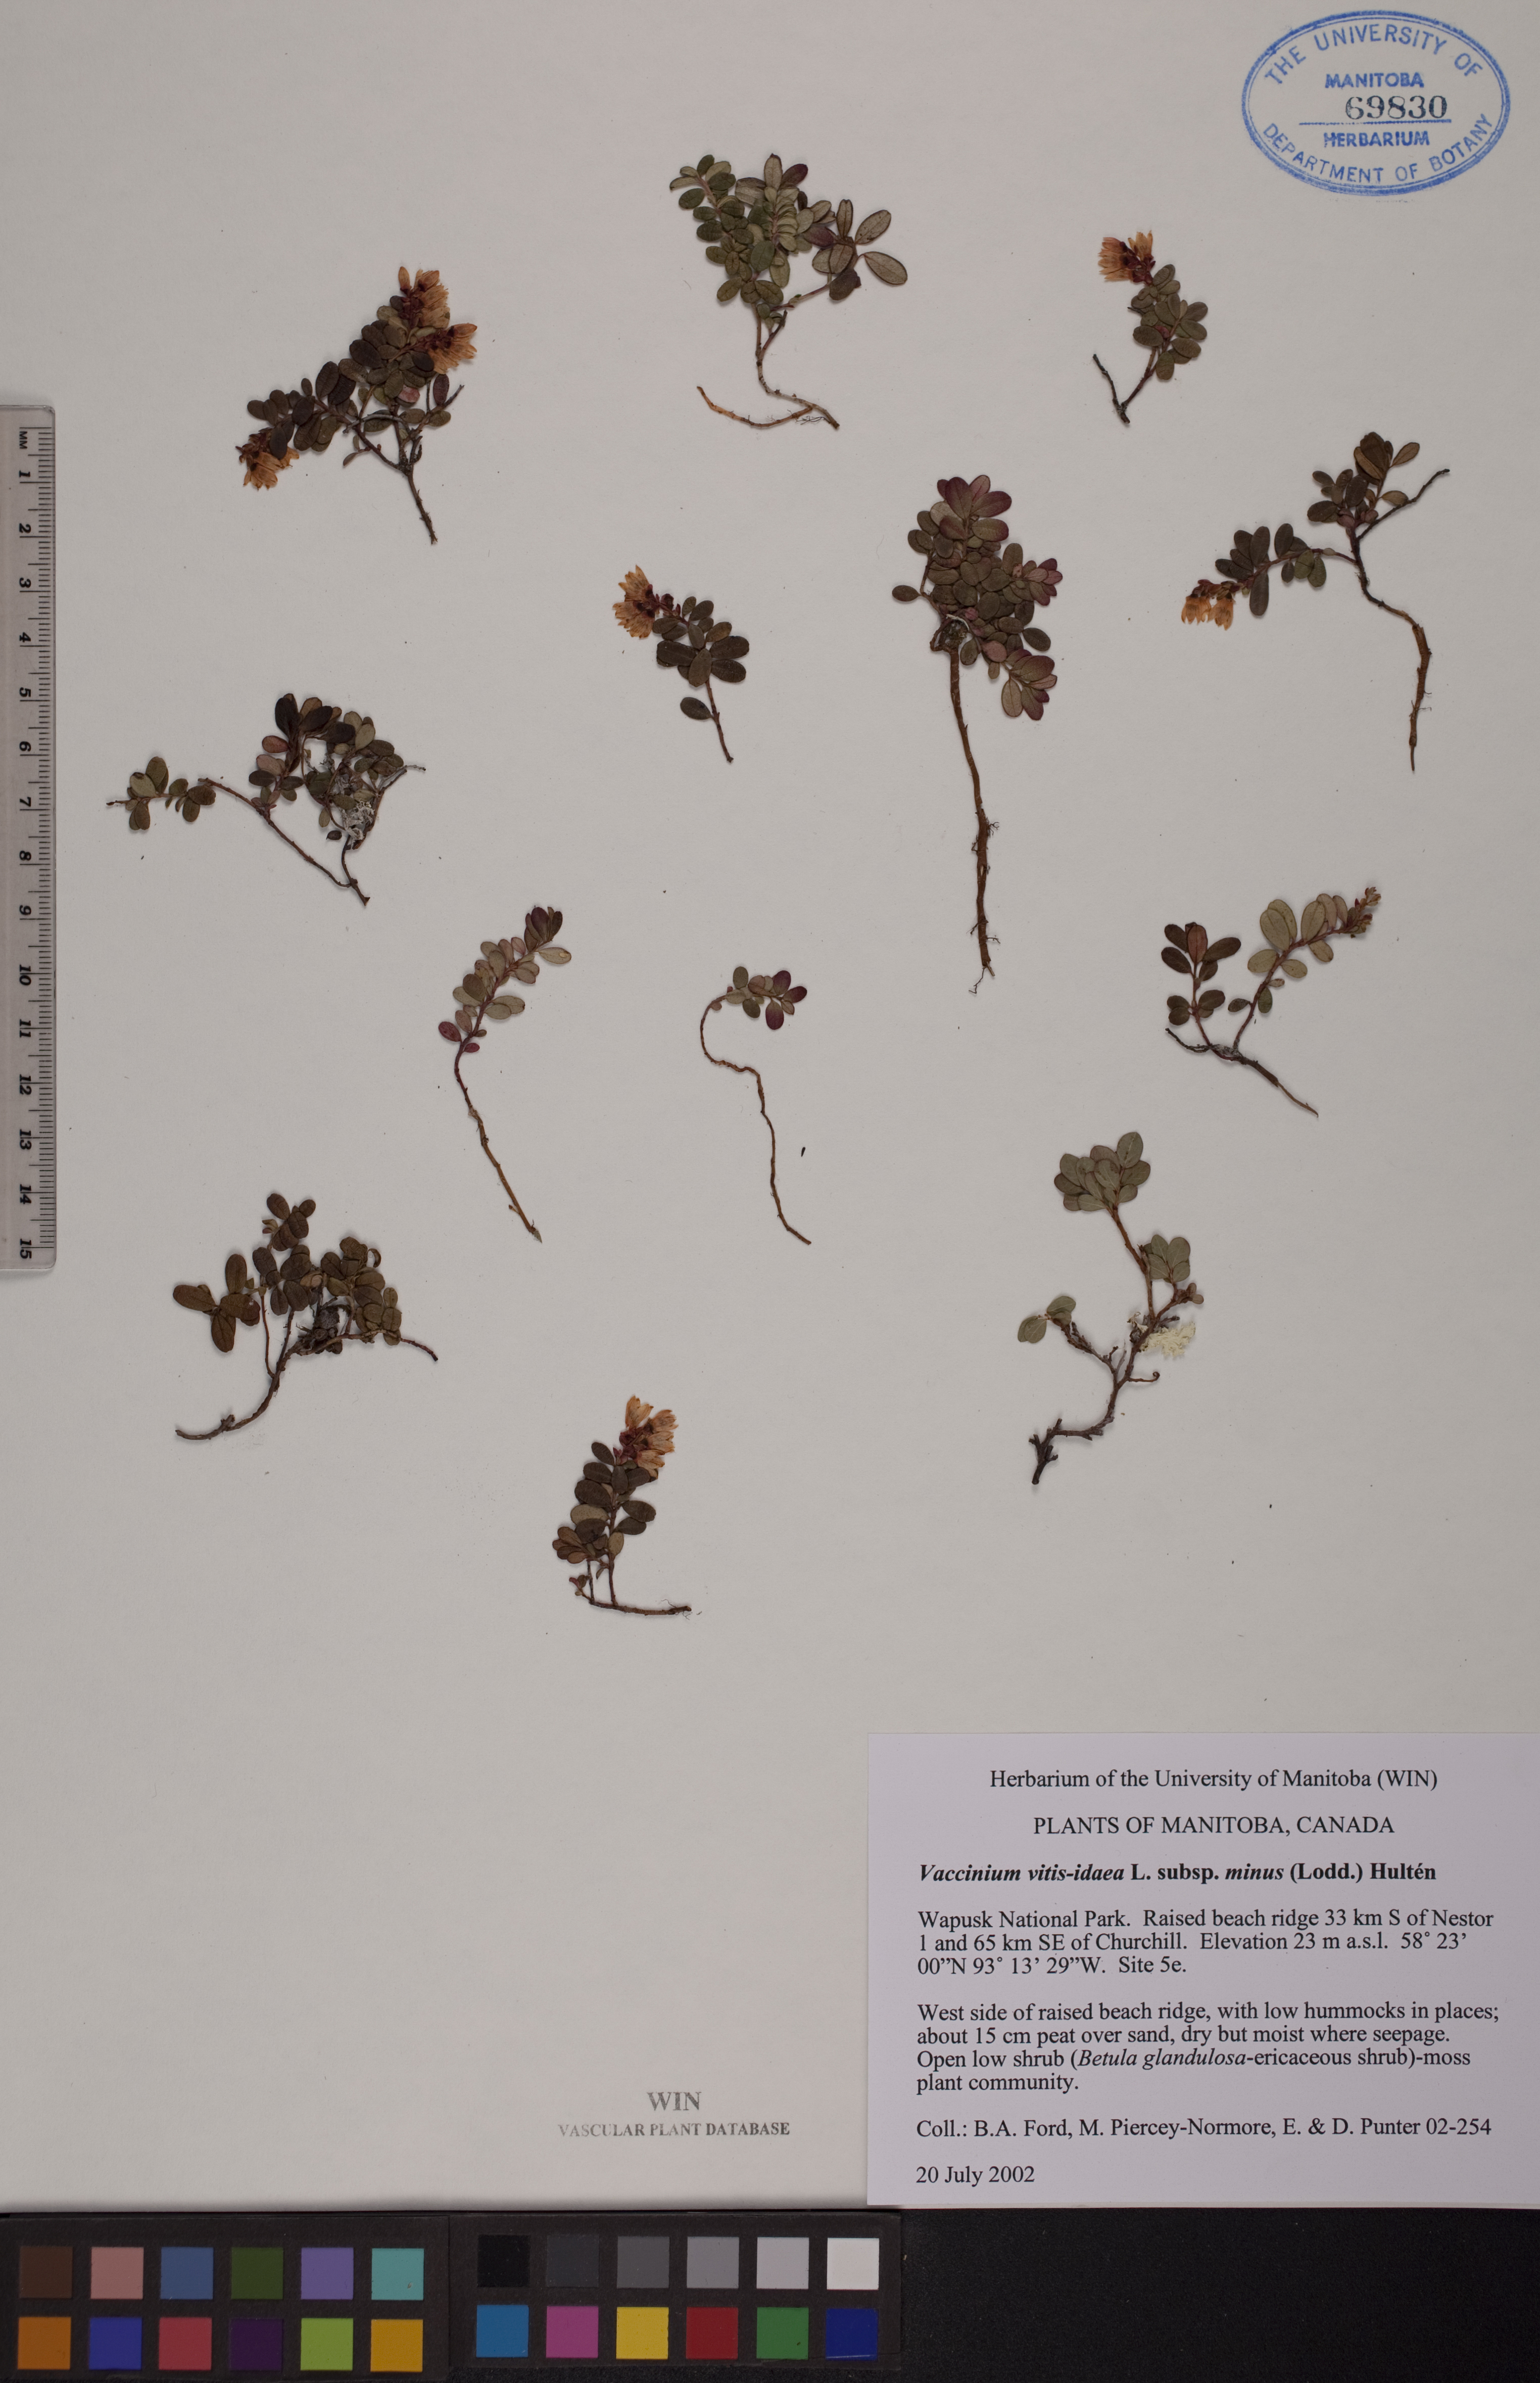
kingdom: Plantae
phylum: Tracheophyta
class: Magnoliopsida
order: Ericales
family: Ericaceae
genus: Vaccinium
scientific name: Vaccinium vitis-idaea
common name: Cowberry
